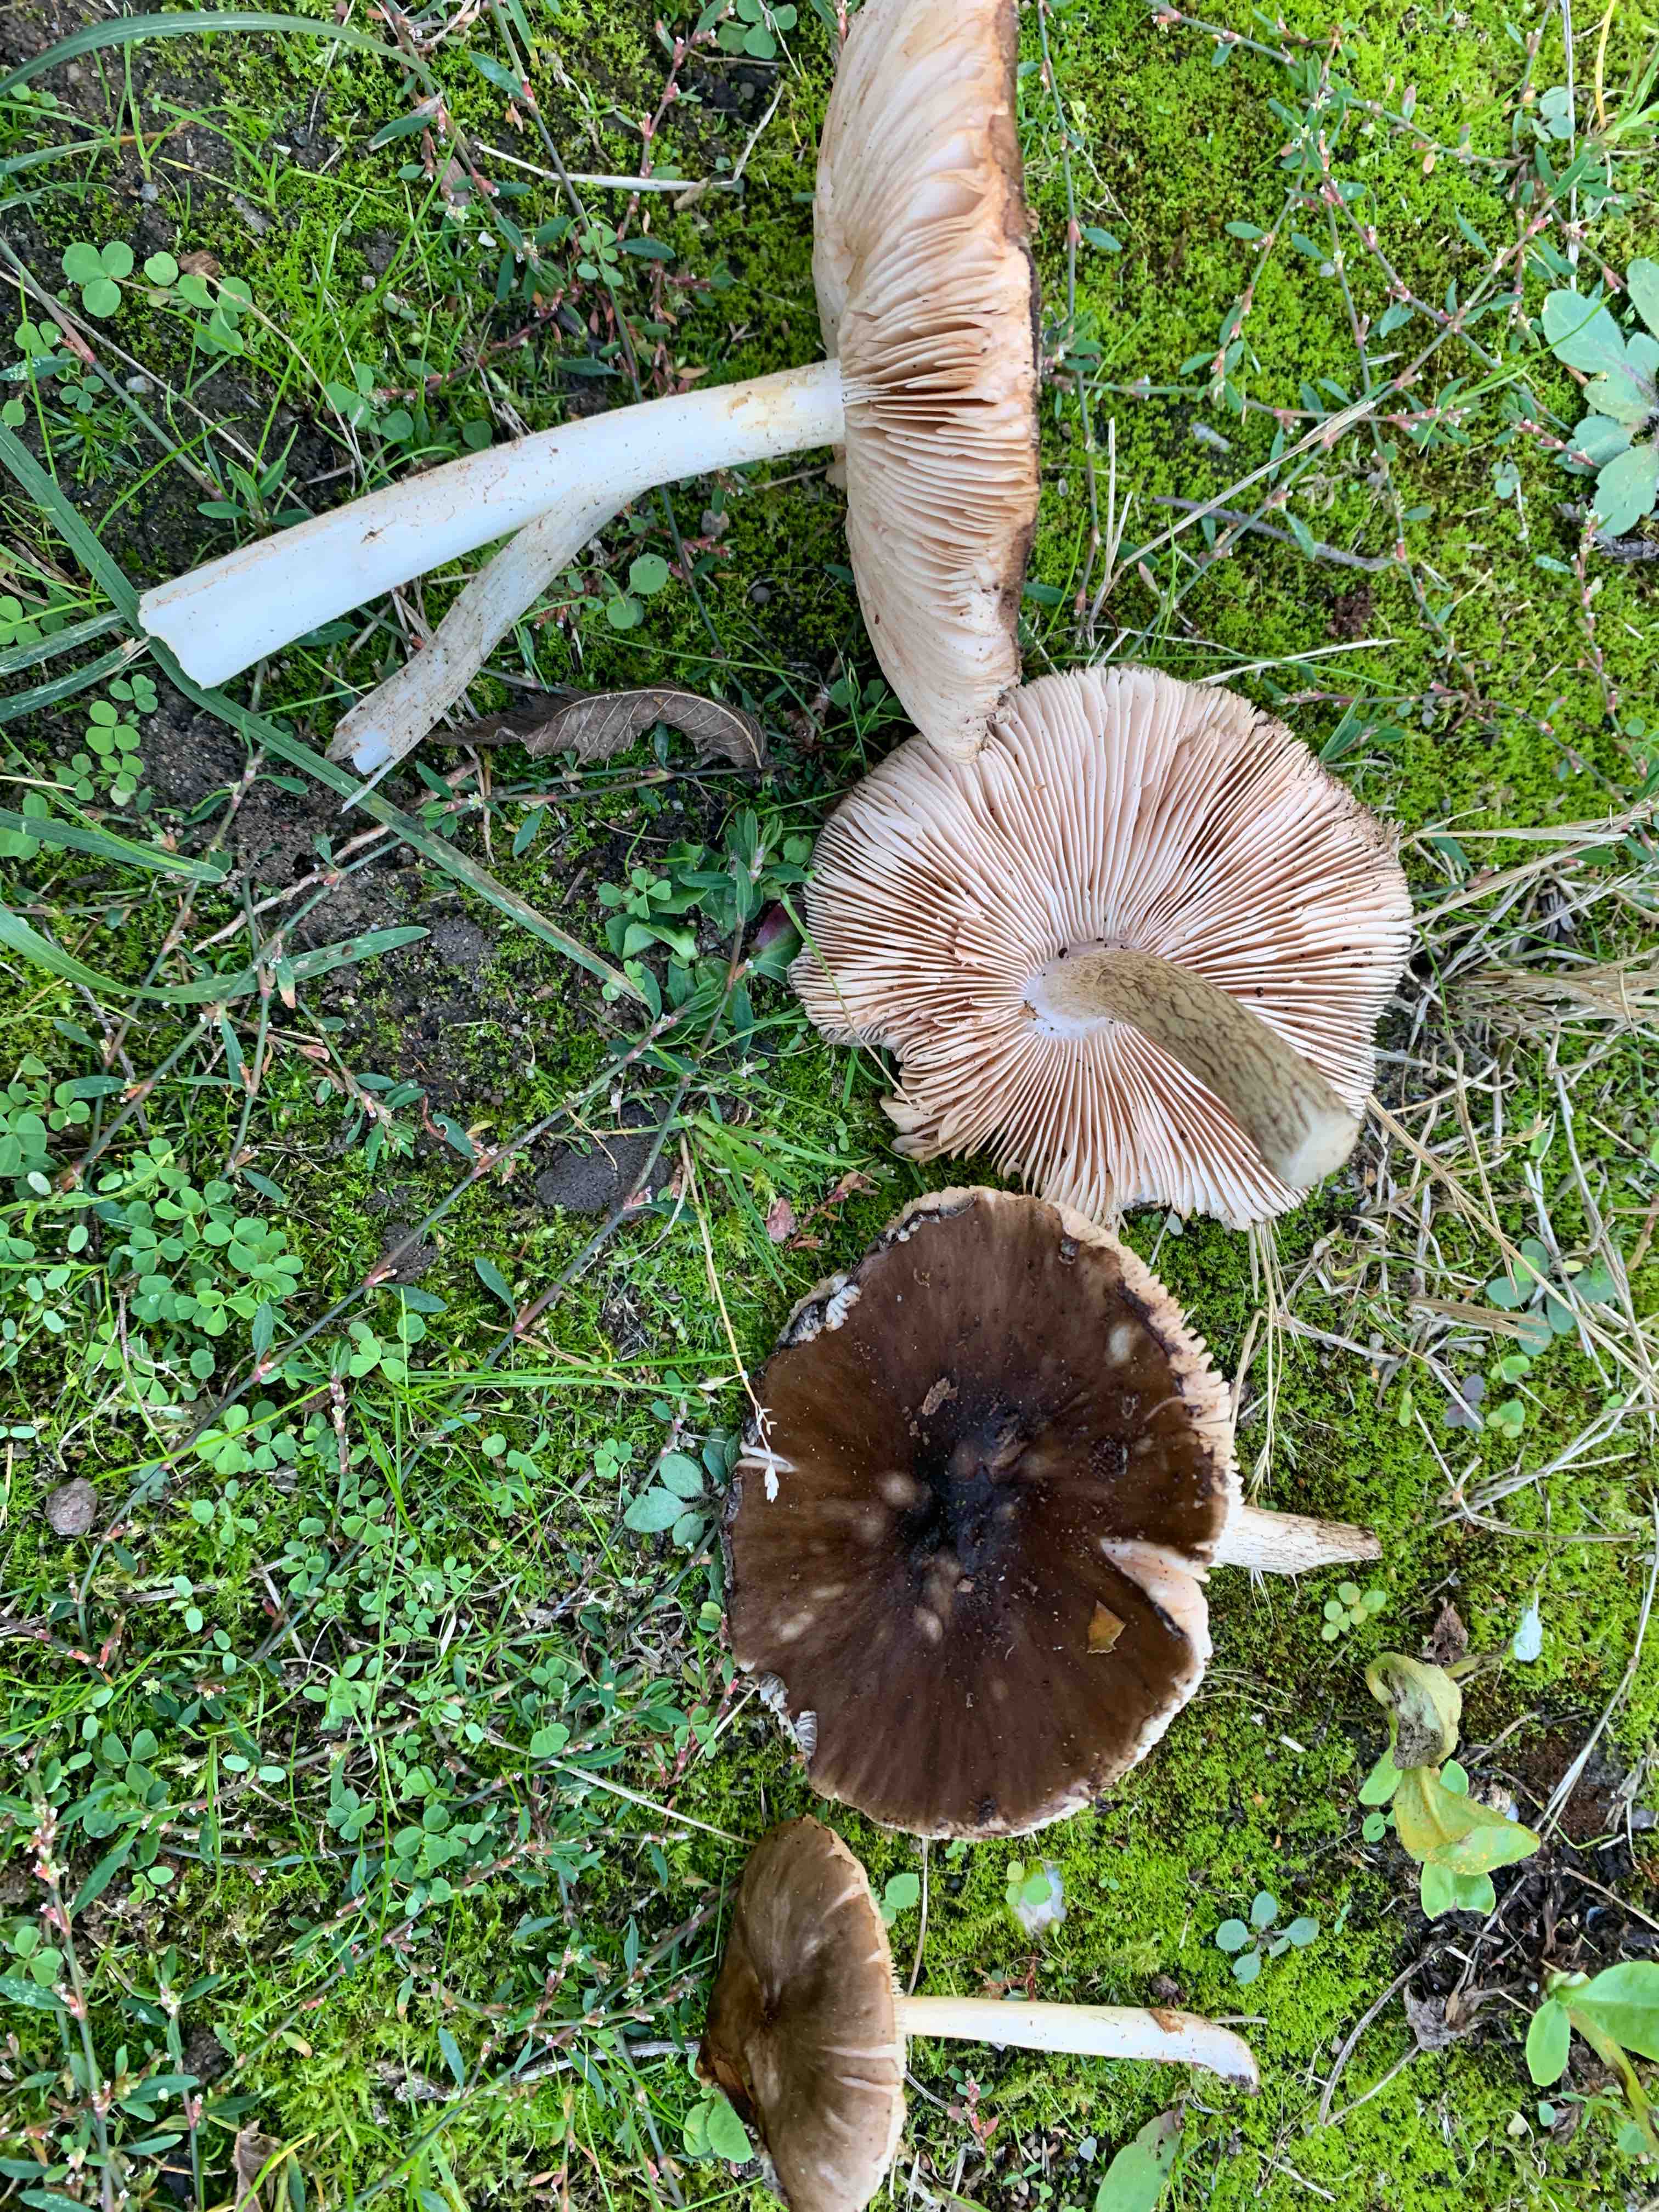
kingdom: Fungi
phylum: Basidiomycota
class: Agaricomycetes
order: Agaricales
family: Pluteaceae
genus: Pluteus
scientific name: Pluteus cervinus
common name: sodfarvet skærmhat
